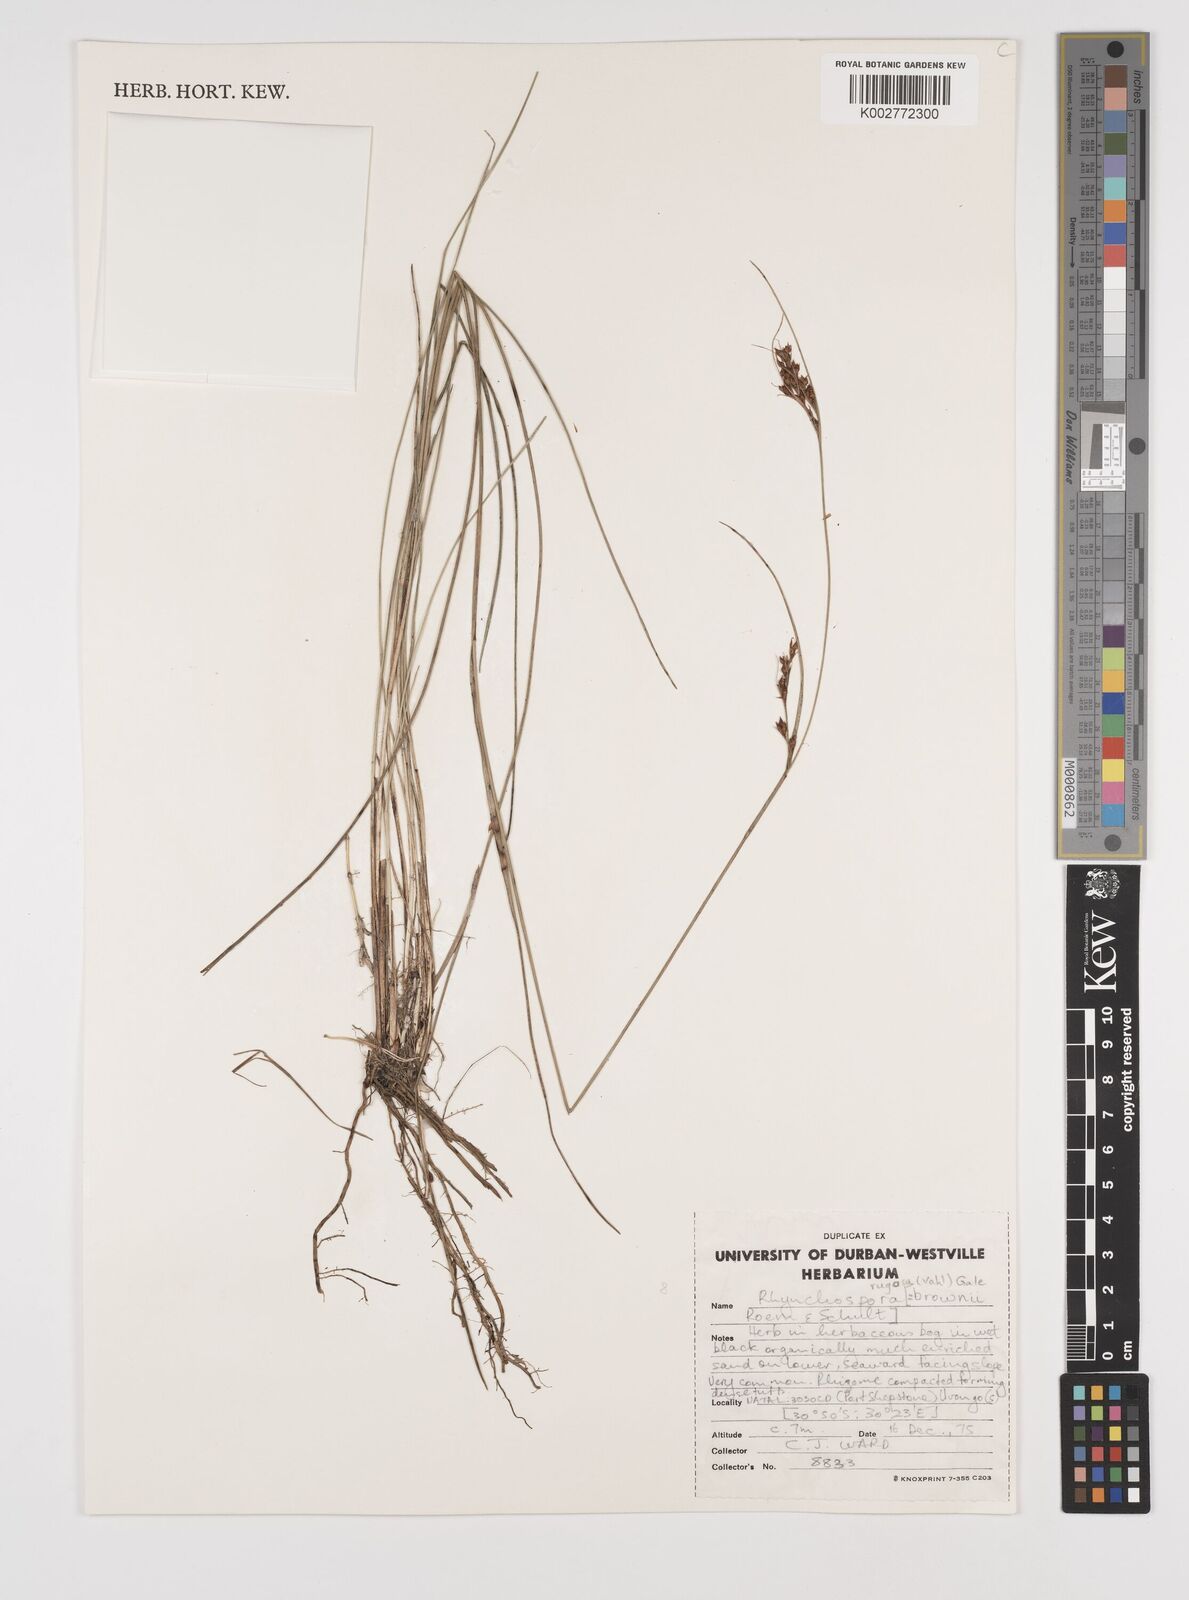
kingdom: Plantae
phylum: Tracheophyta
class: Liliopsida
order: Poales
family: Cyperaceae
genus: Rhynchospora
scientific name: Rhynchospora rugosa
